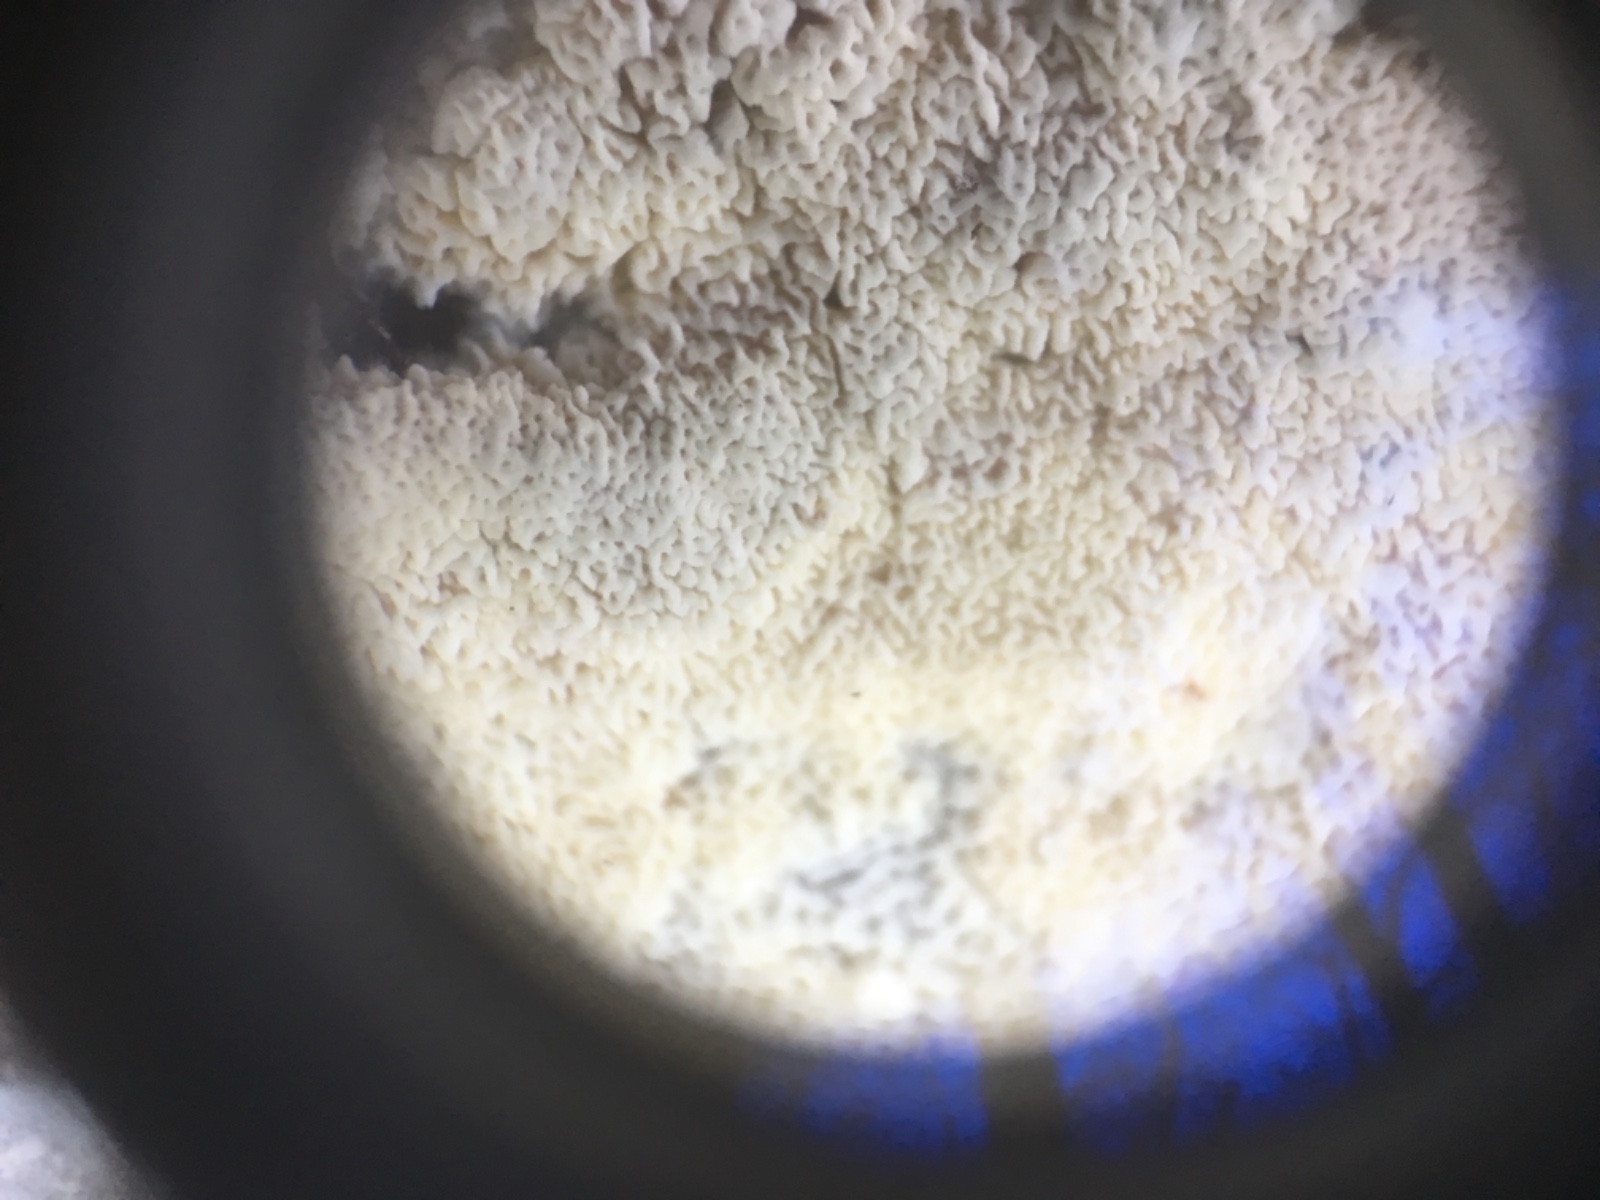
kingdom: Fungi
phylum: Basidiomycota
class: Agaricomycetes
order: Corticiales
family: Corticiaceae
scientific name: Corticiaceae
